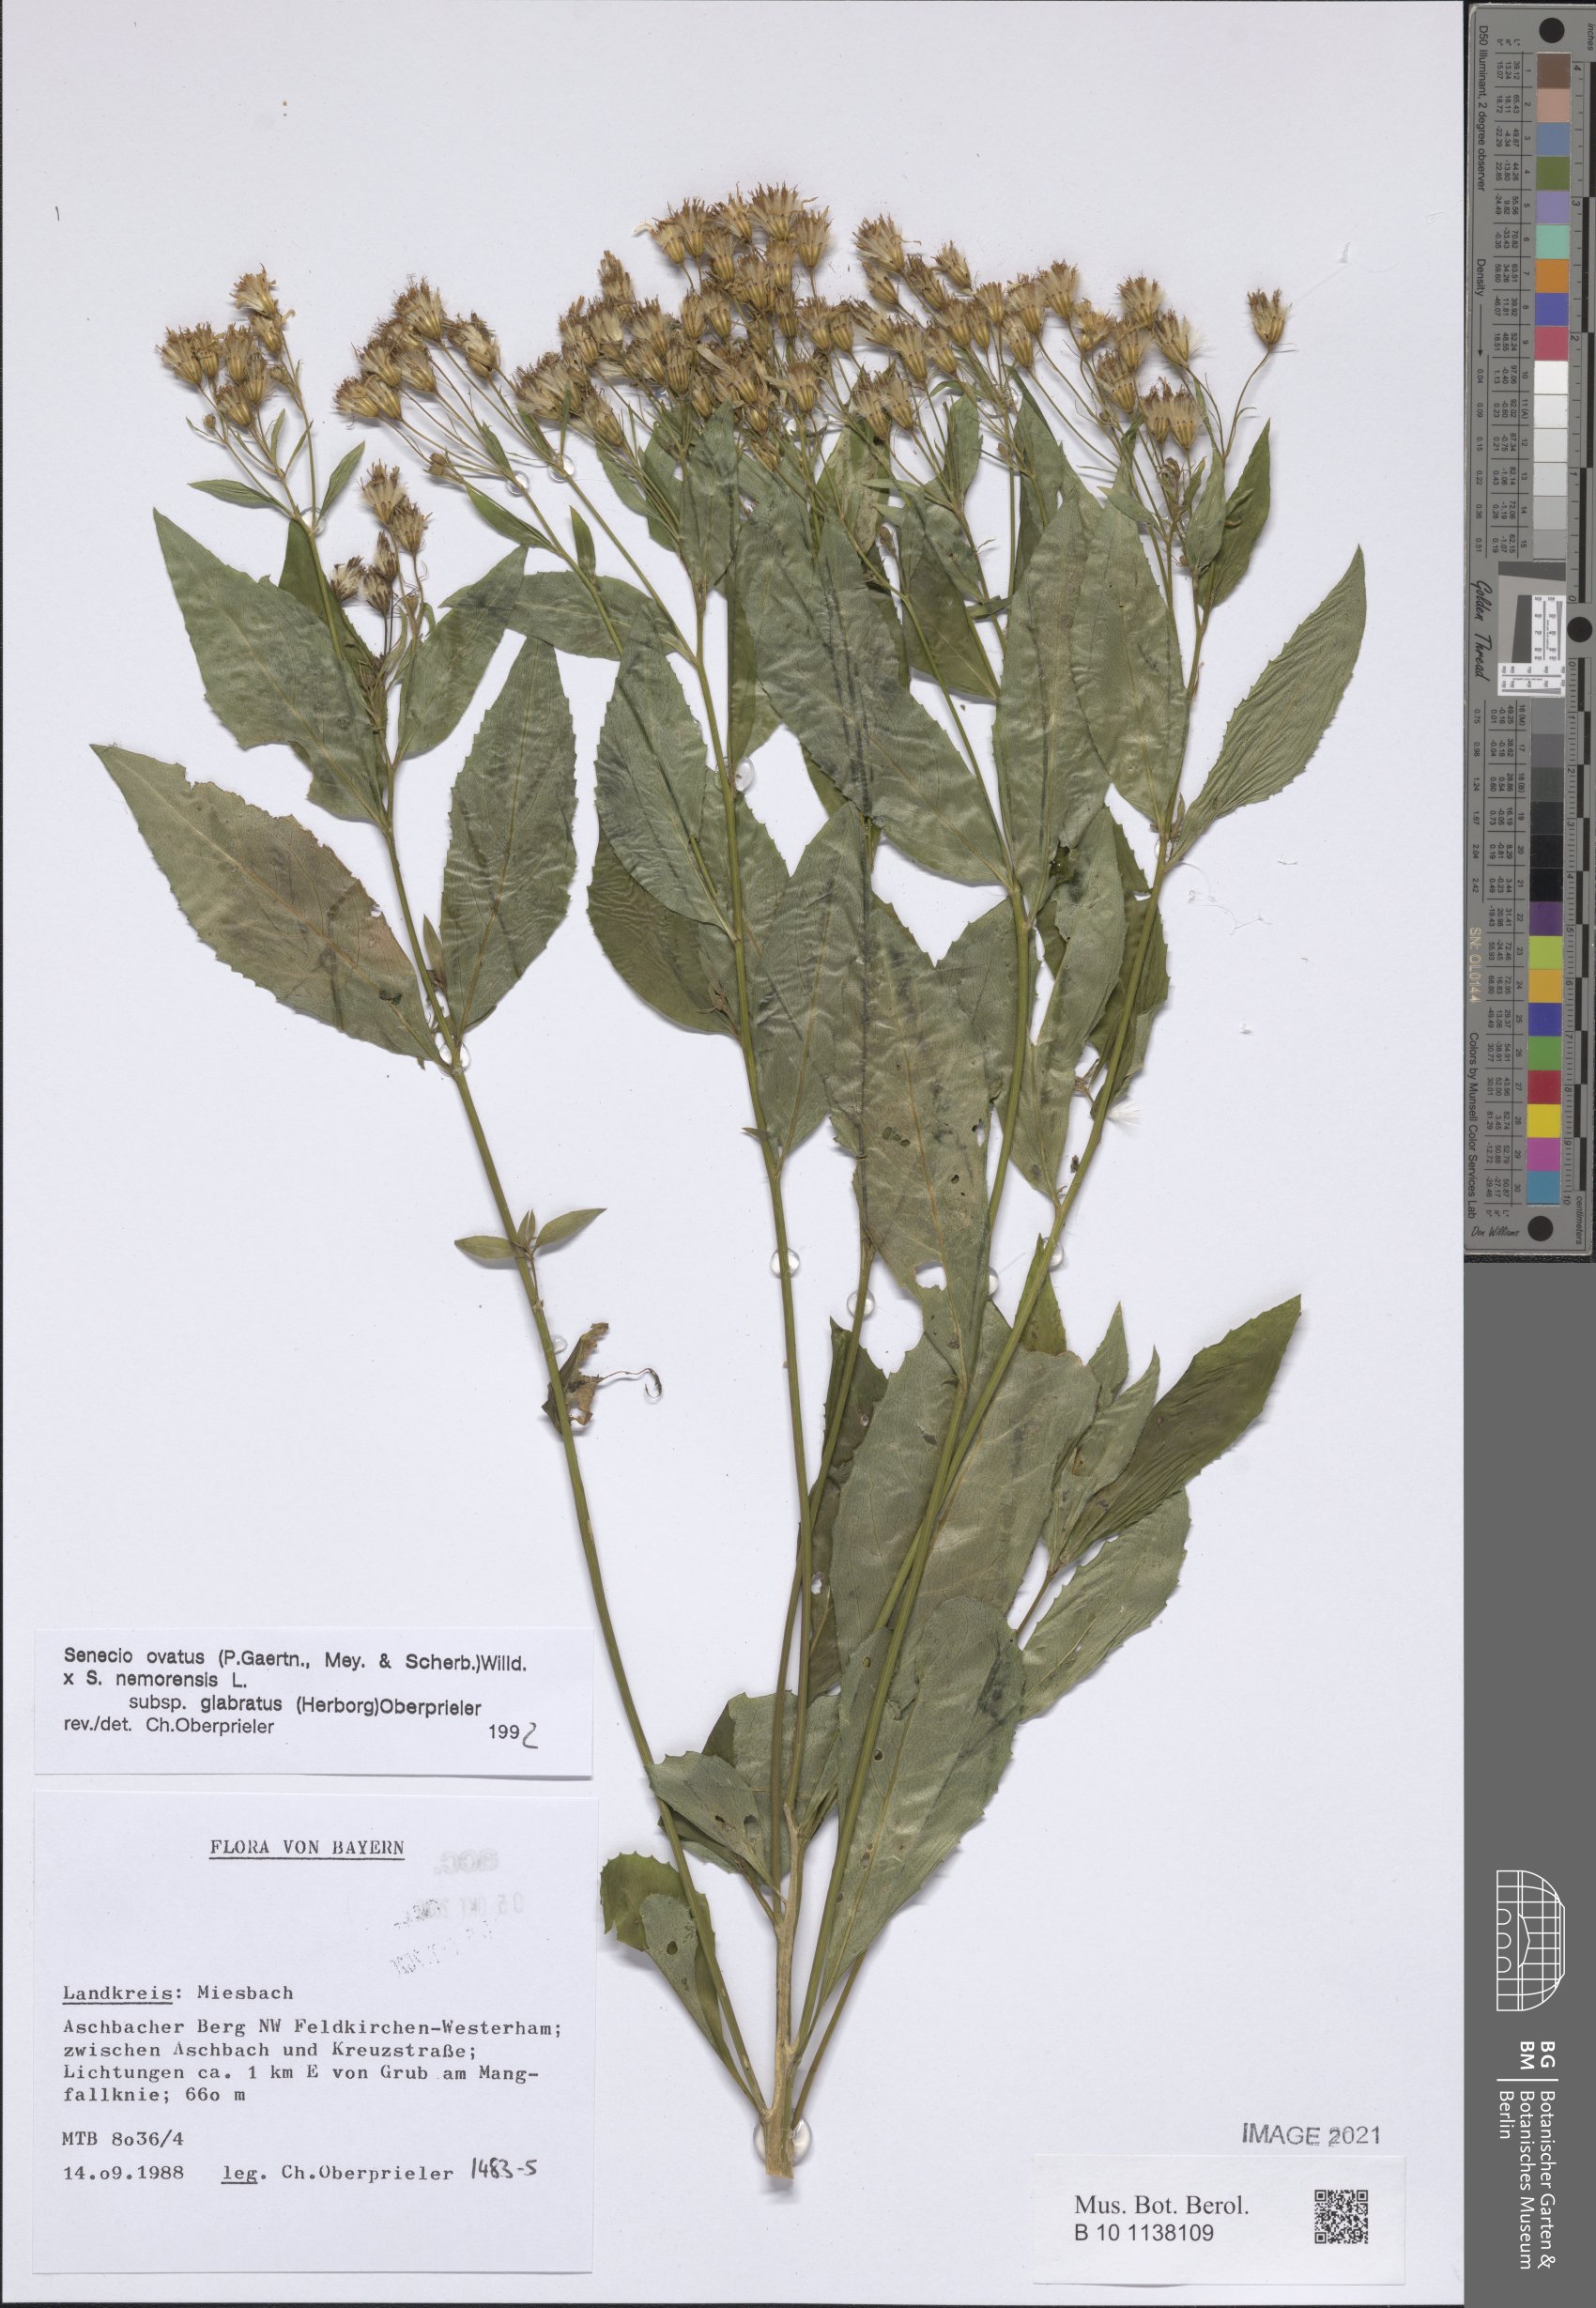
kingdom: Plantae
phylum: Tracheophyta
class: Magnoliopsida
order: Asterales
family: Asteraceae
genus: Senecio
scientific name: Senecio ovatus
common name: Wood ragwort
